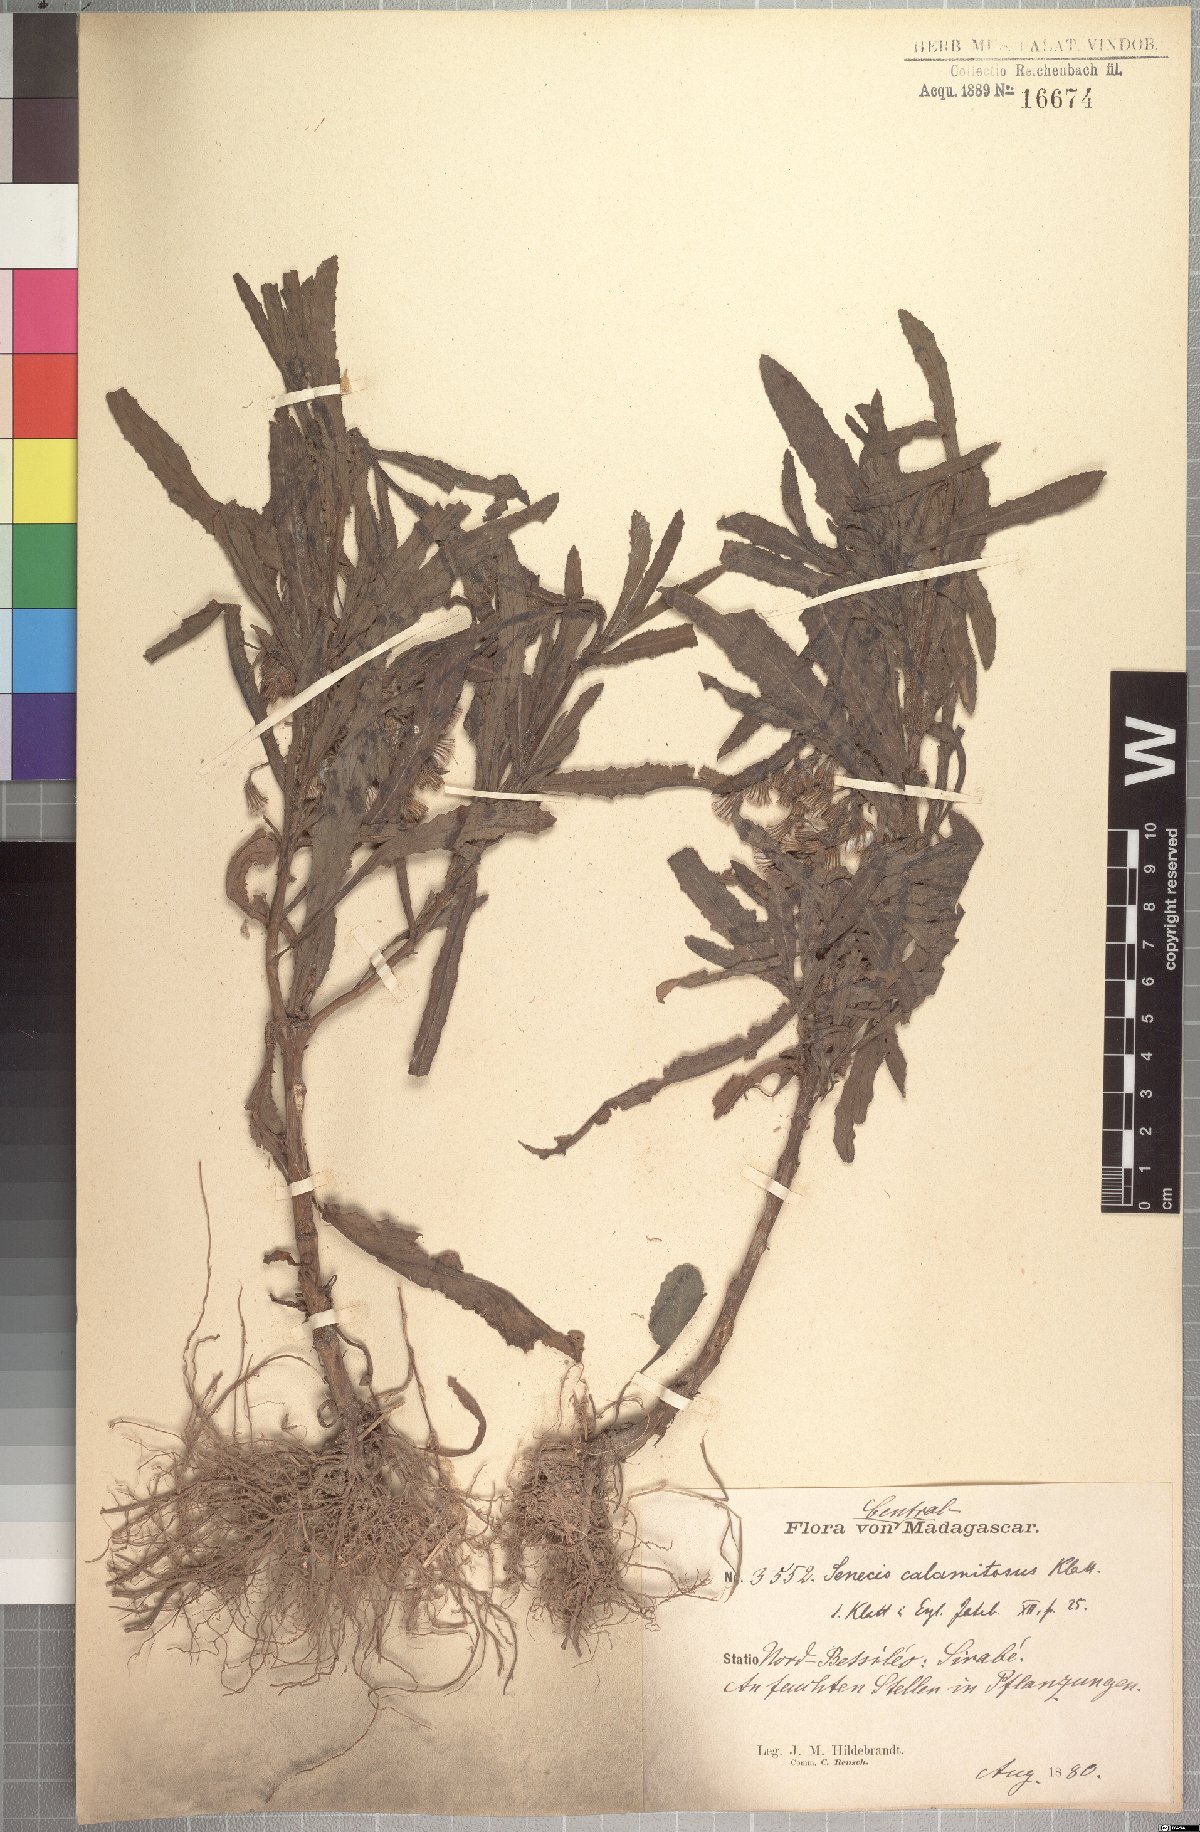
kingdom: Plantae
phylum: Tracheophyta
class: Magnoliopsida
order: Asterales
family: Asteraceae
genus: Senecio
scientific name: Senecio erechtitioides
